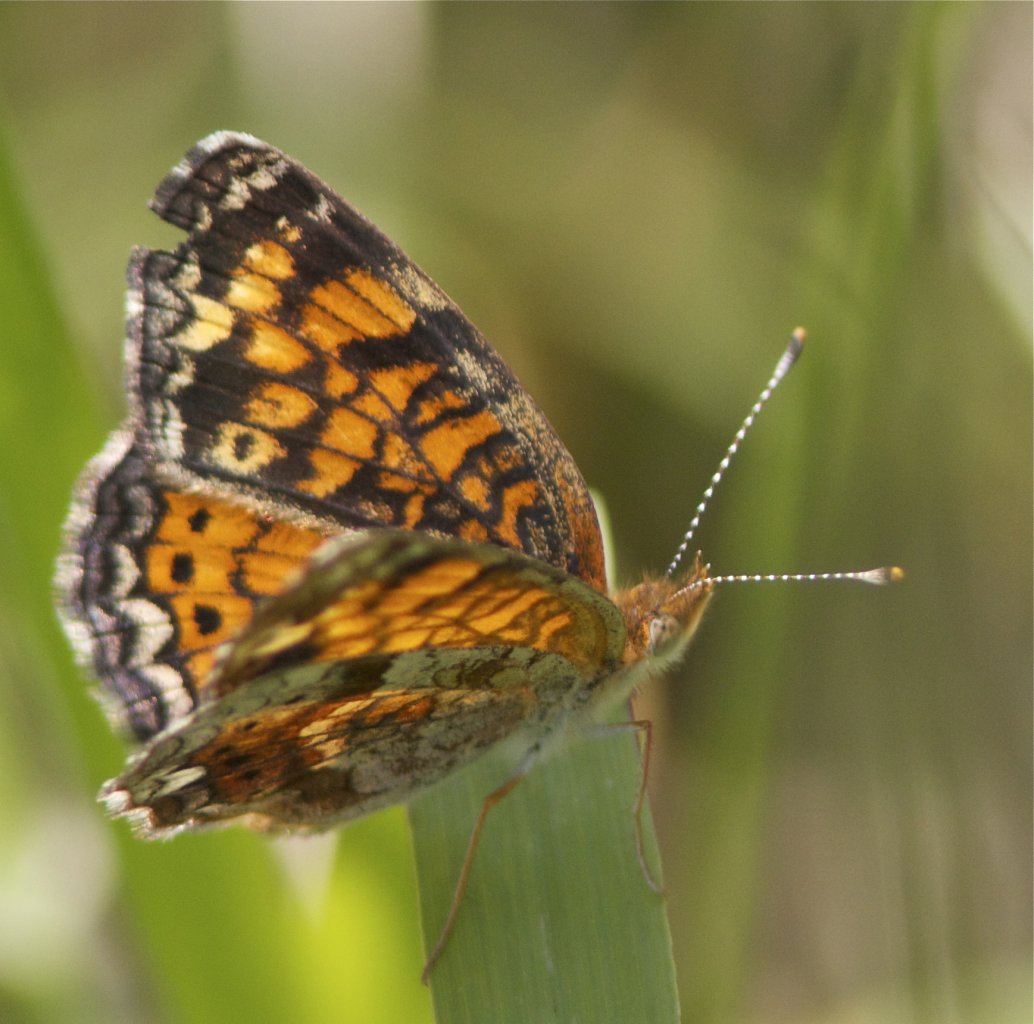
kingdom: Animalia
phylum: Arthropoda
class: Insecta
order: Lepidoptera
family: Nymphalidae
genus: Phyciodes
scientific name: Phyciodes tharos
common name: Pearl Crescent
